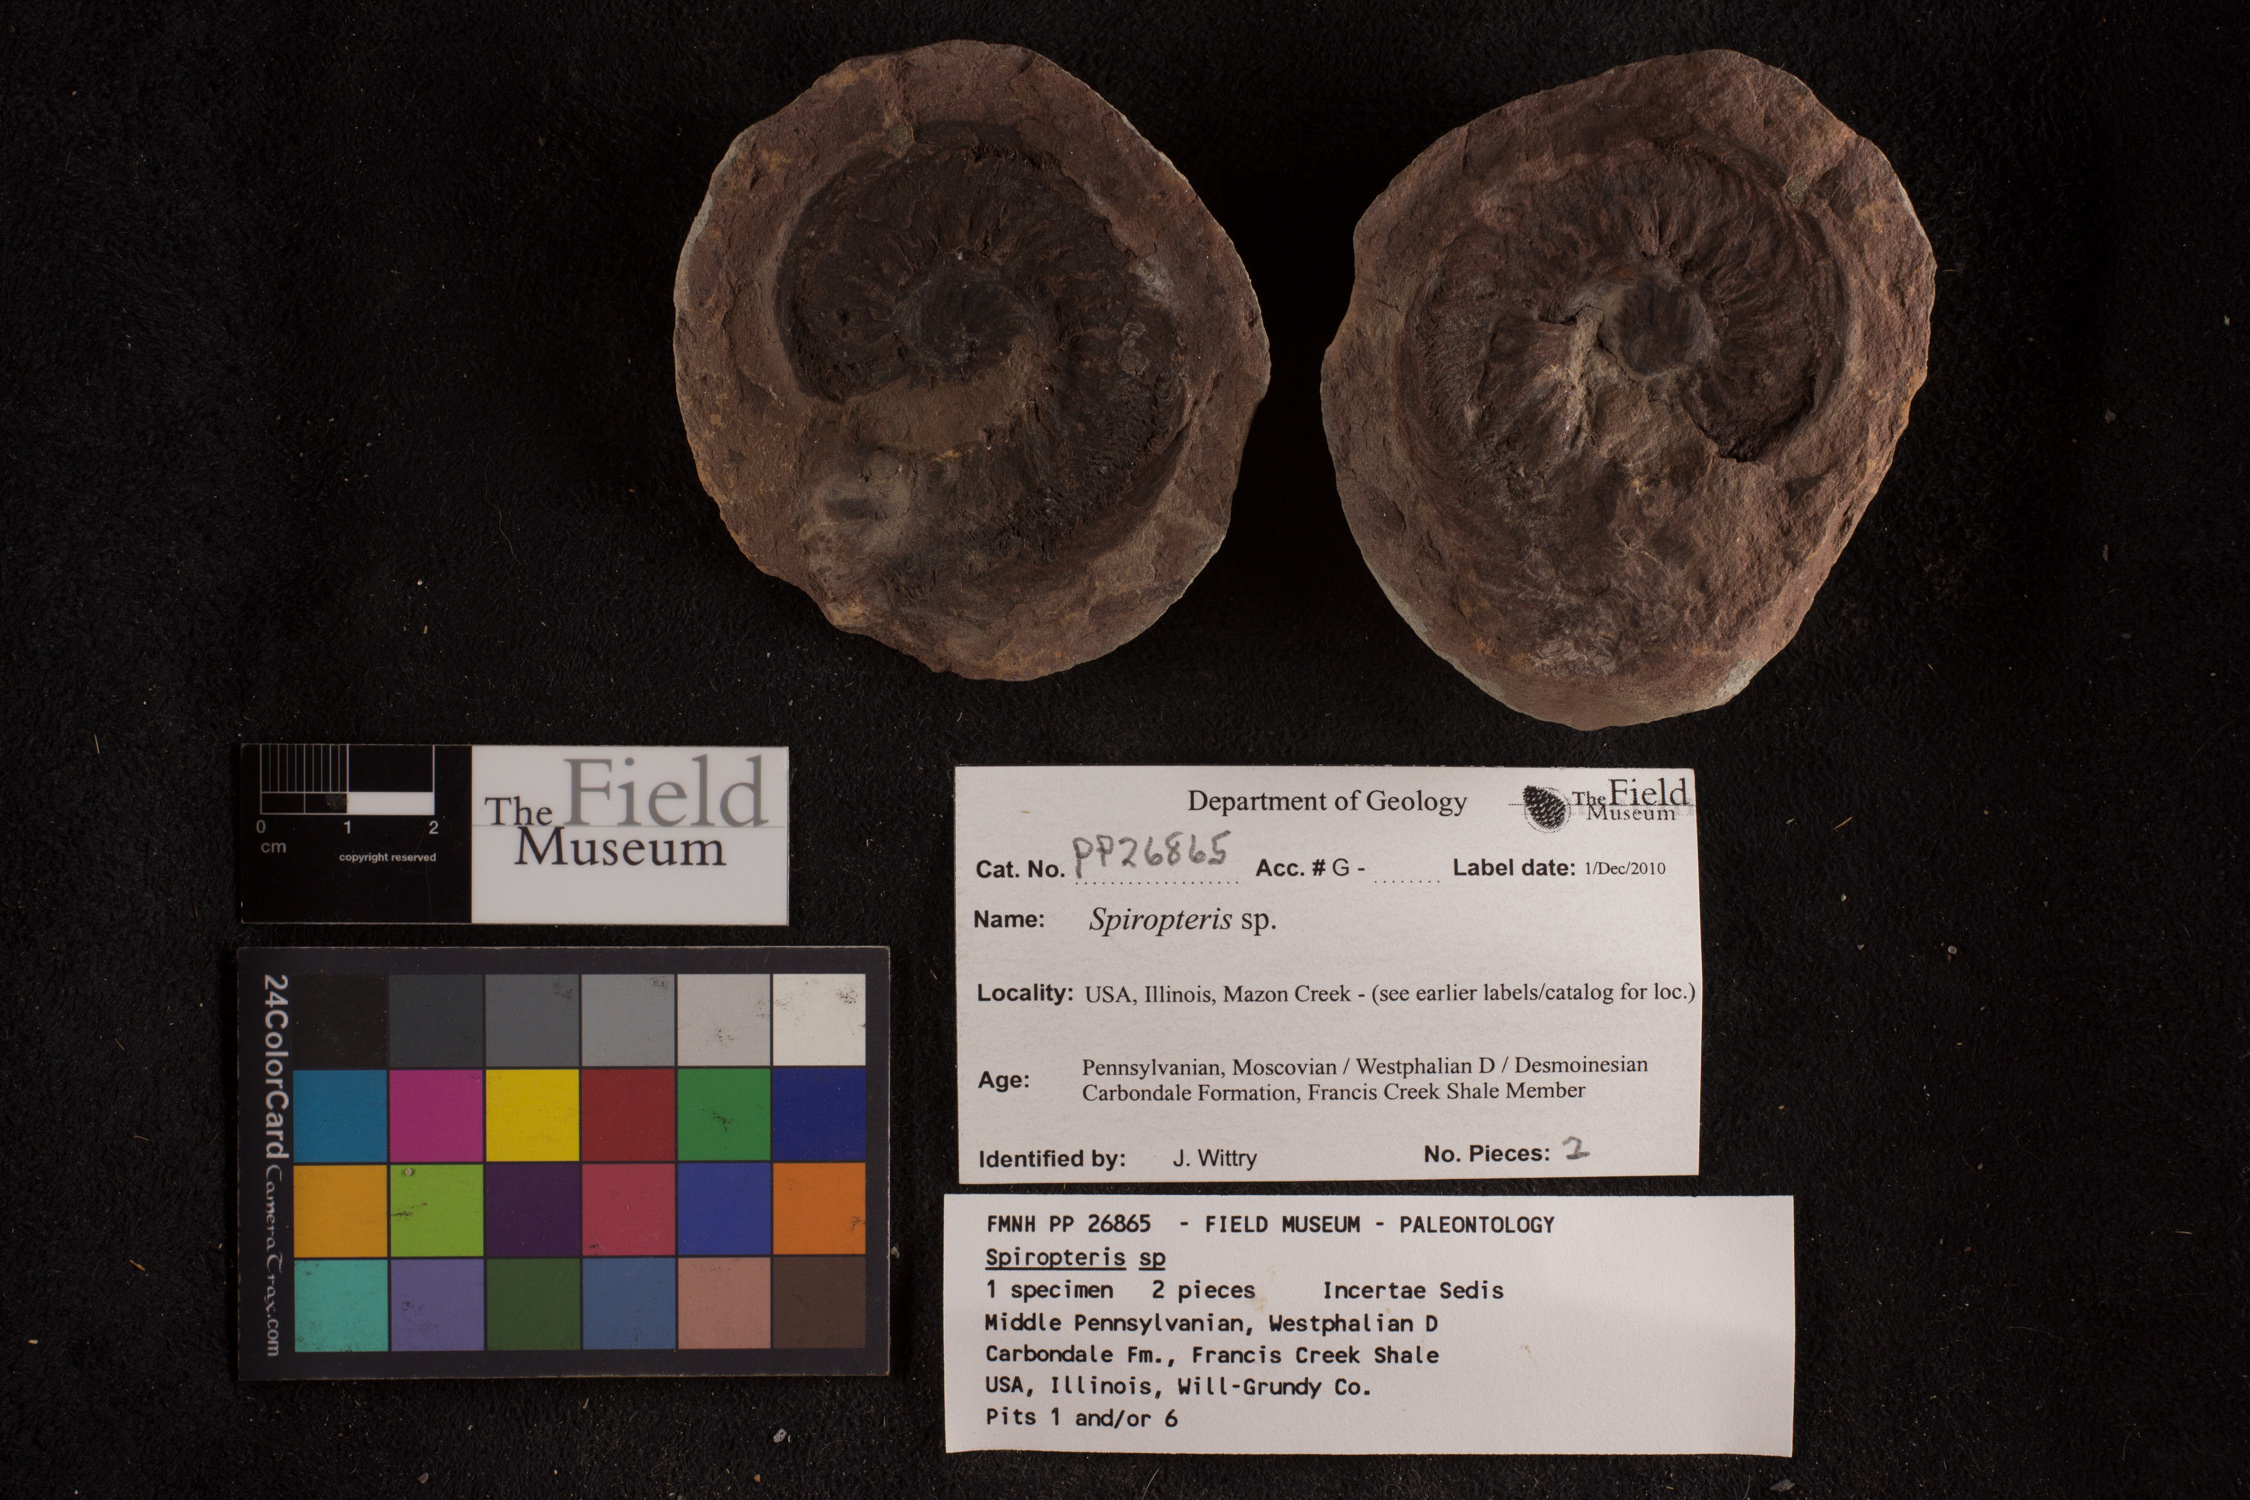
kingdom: Plantae
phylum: Tracheophyta
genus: Spiropteris
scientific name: Spiropteris
